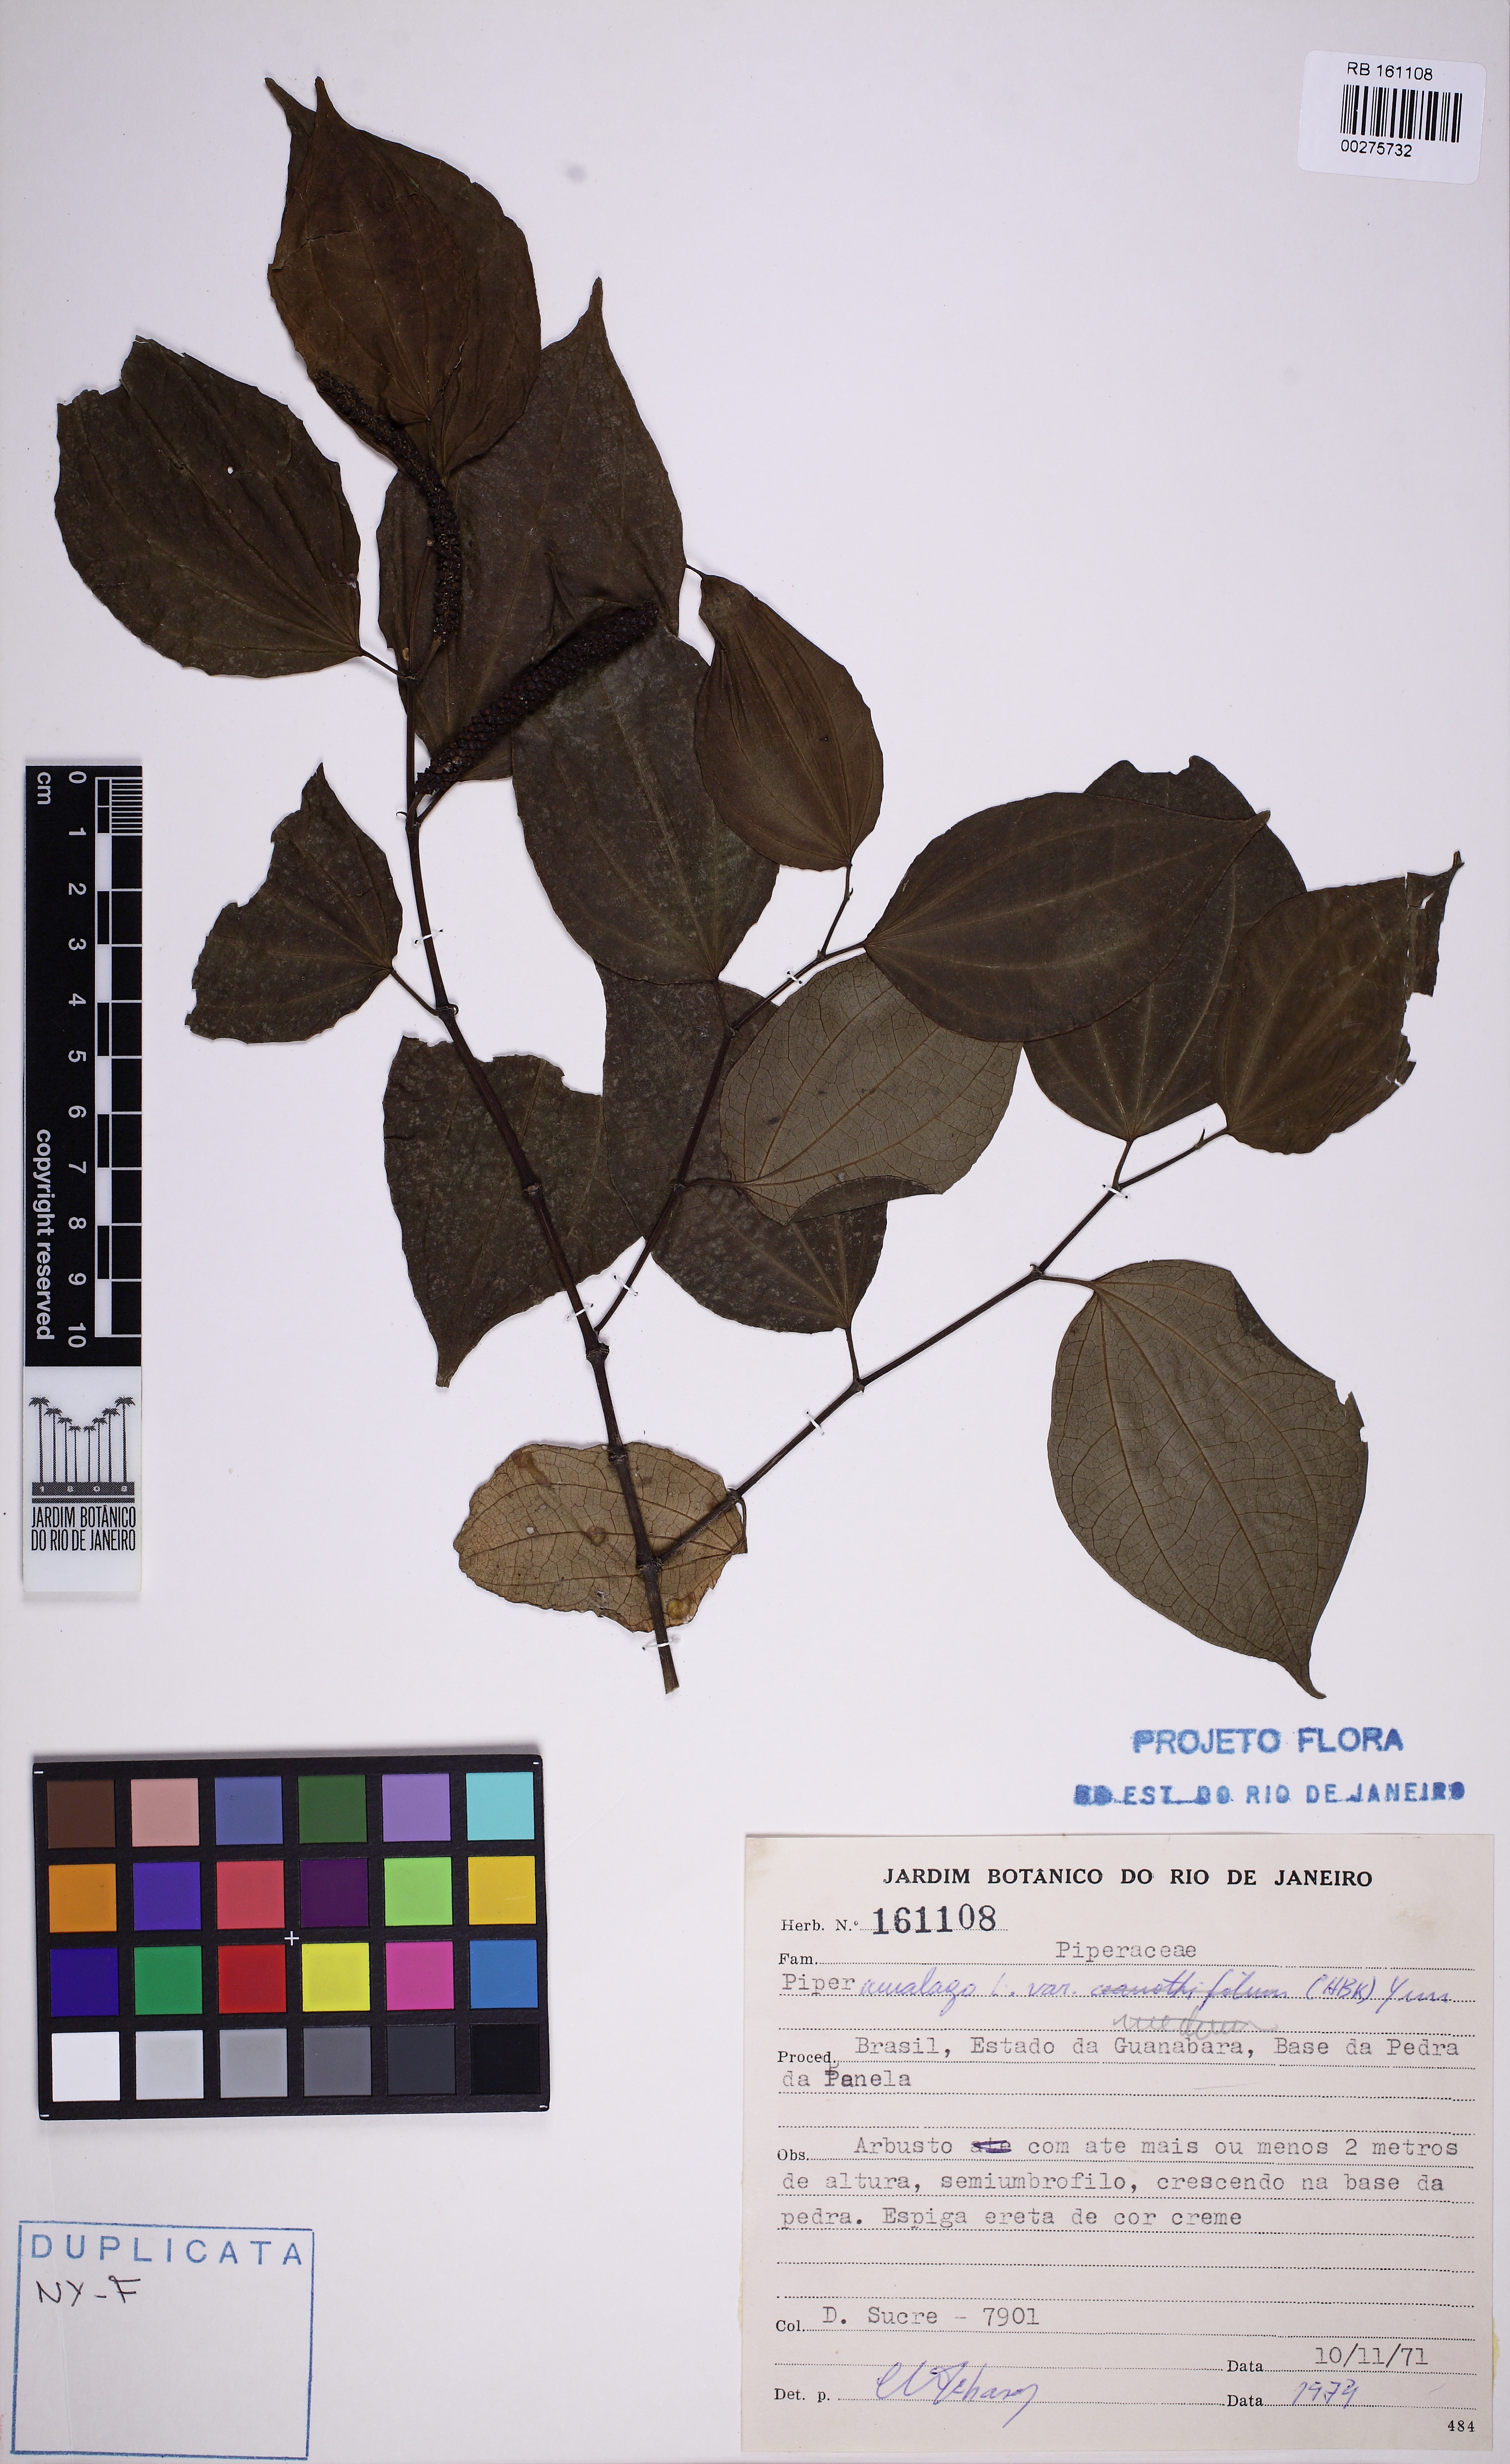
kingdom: Plantae
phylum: Tracheophyta
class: Magnoliopsida
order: Piperales
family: Piperaceae
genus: Piper
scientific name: Piper amalago
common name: Pepper-elder
